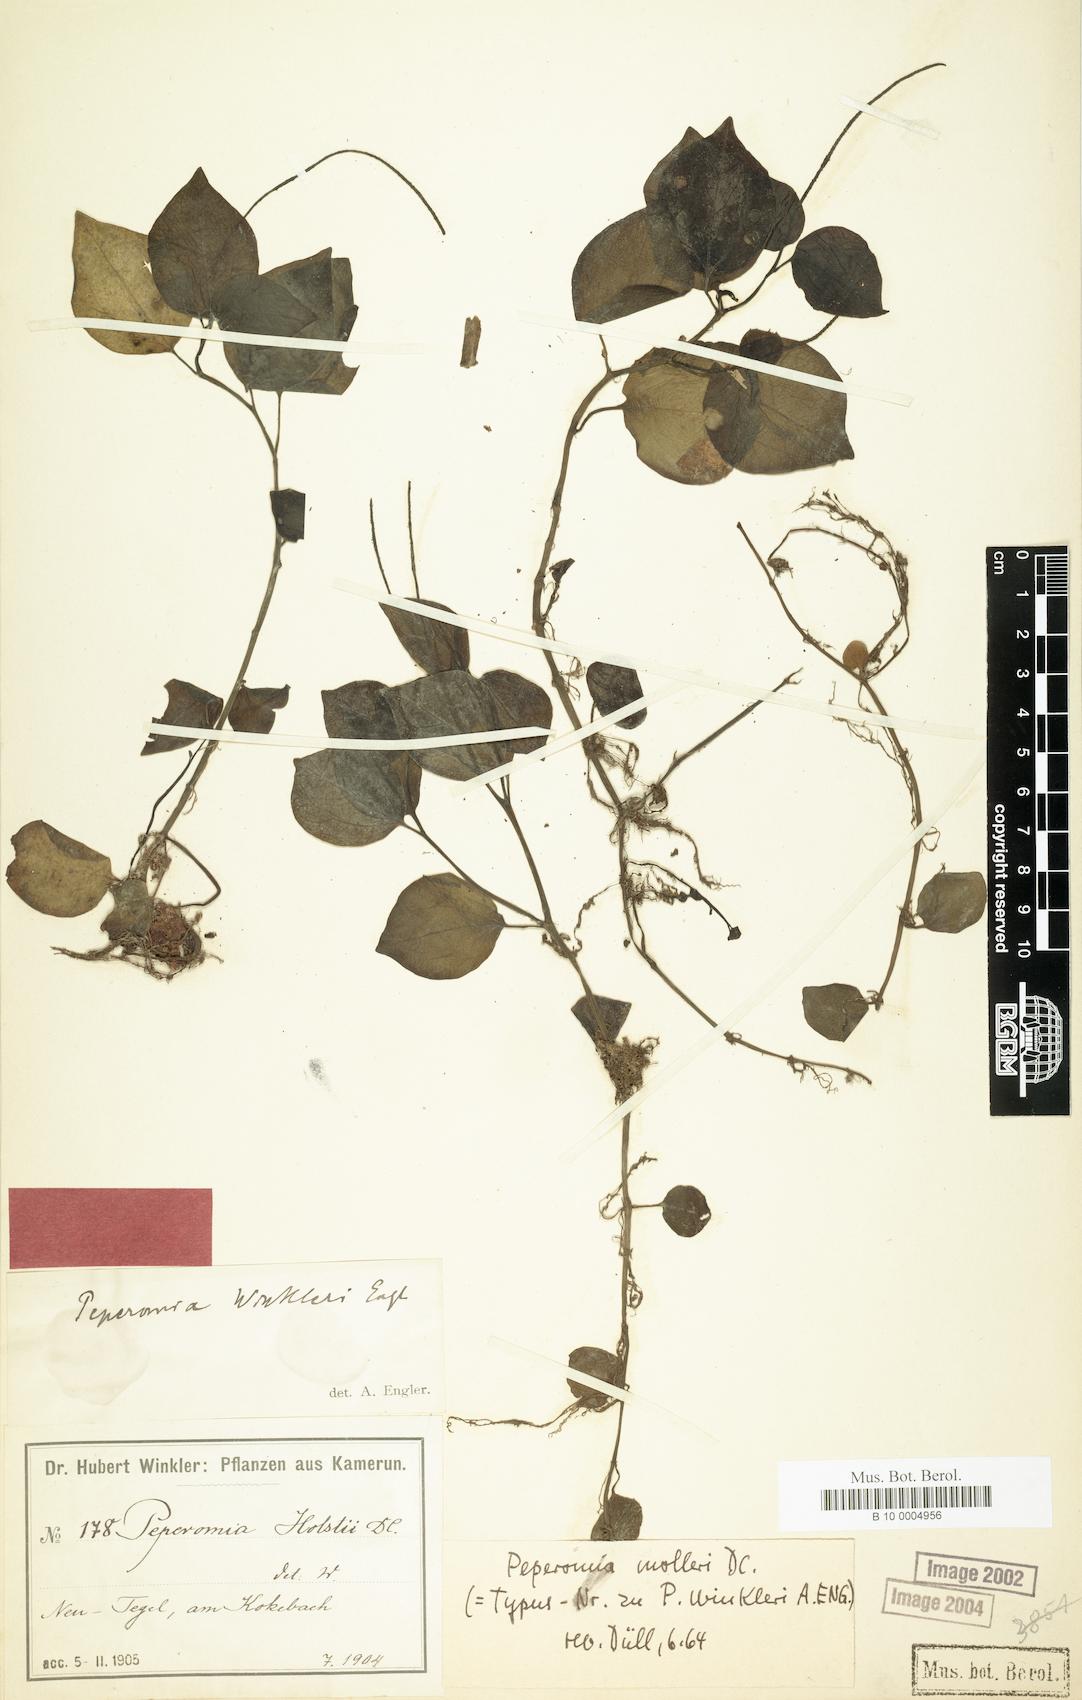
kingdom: Plantae
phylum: Tracheophyta
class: Magnoliopsida
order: Piperales
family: Piperaceae
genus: Peperomia
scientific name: Peperomia molleri
